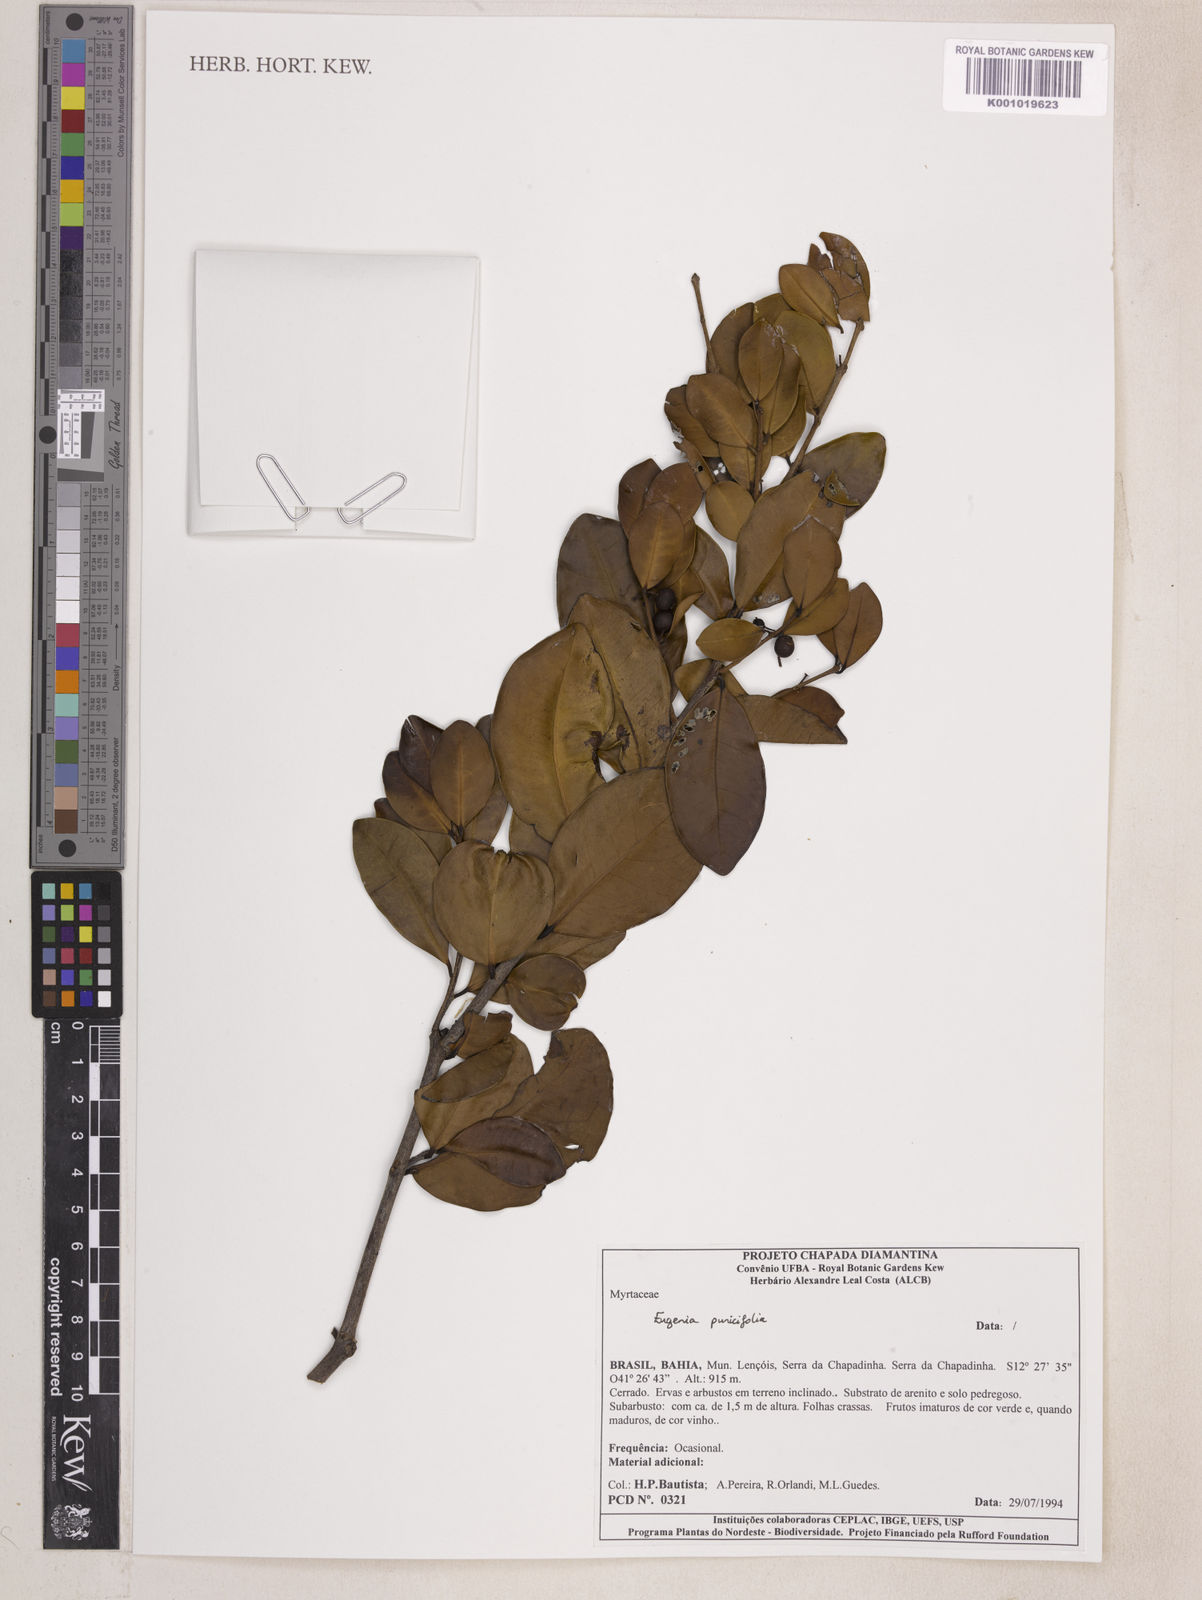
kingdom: Plantae
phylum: Tracheophyta
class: Magnoliopsida
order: Myrtales
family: Myrtaceae
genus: Eugenia
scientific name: Eugenia punicifolia
